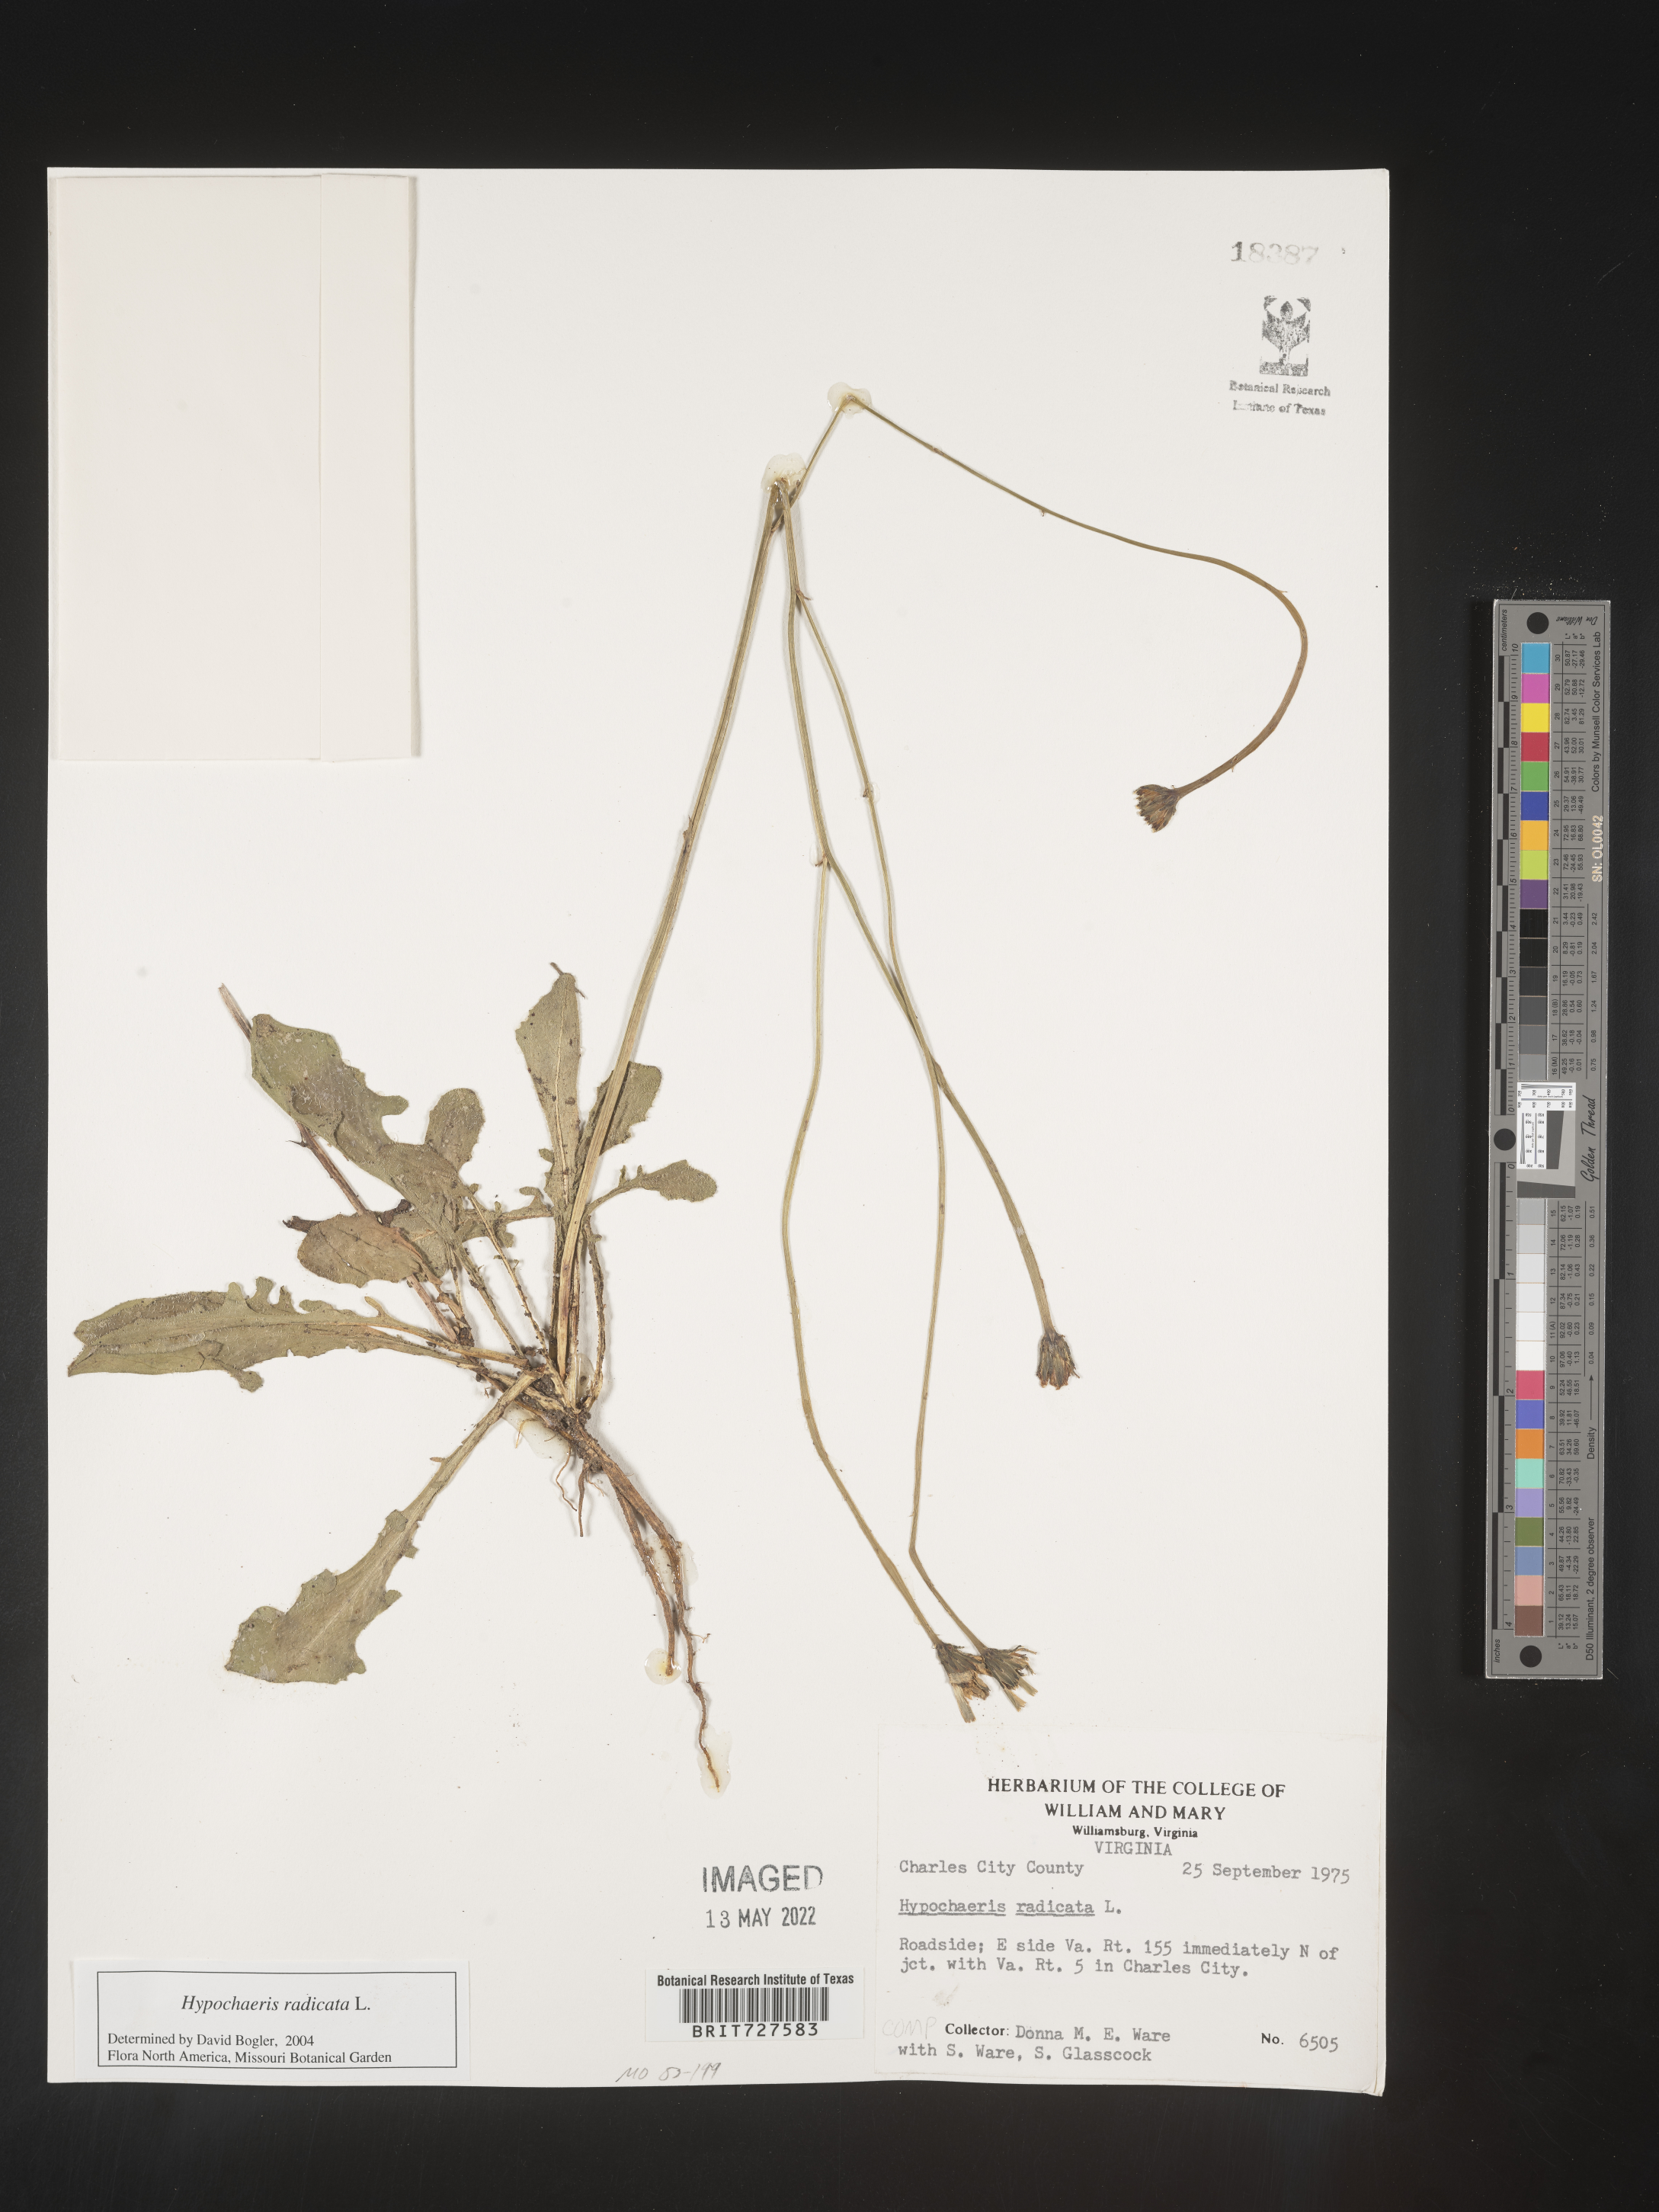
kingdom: Plantae
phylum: Tracheophyta
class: Magnoliopsida
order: Asterales
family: Asteraceae
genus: Hypochaeris
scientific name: Hypochaeris radicata
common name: Flatweed
